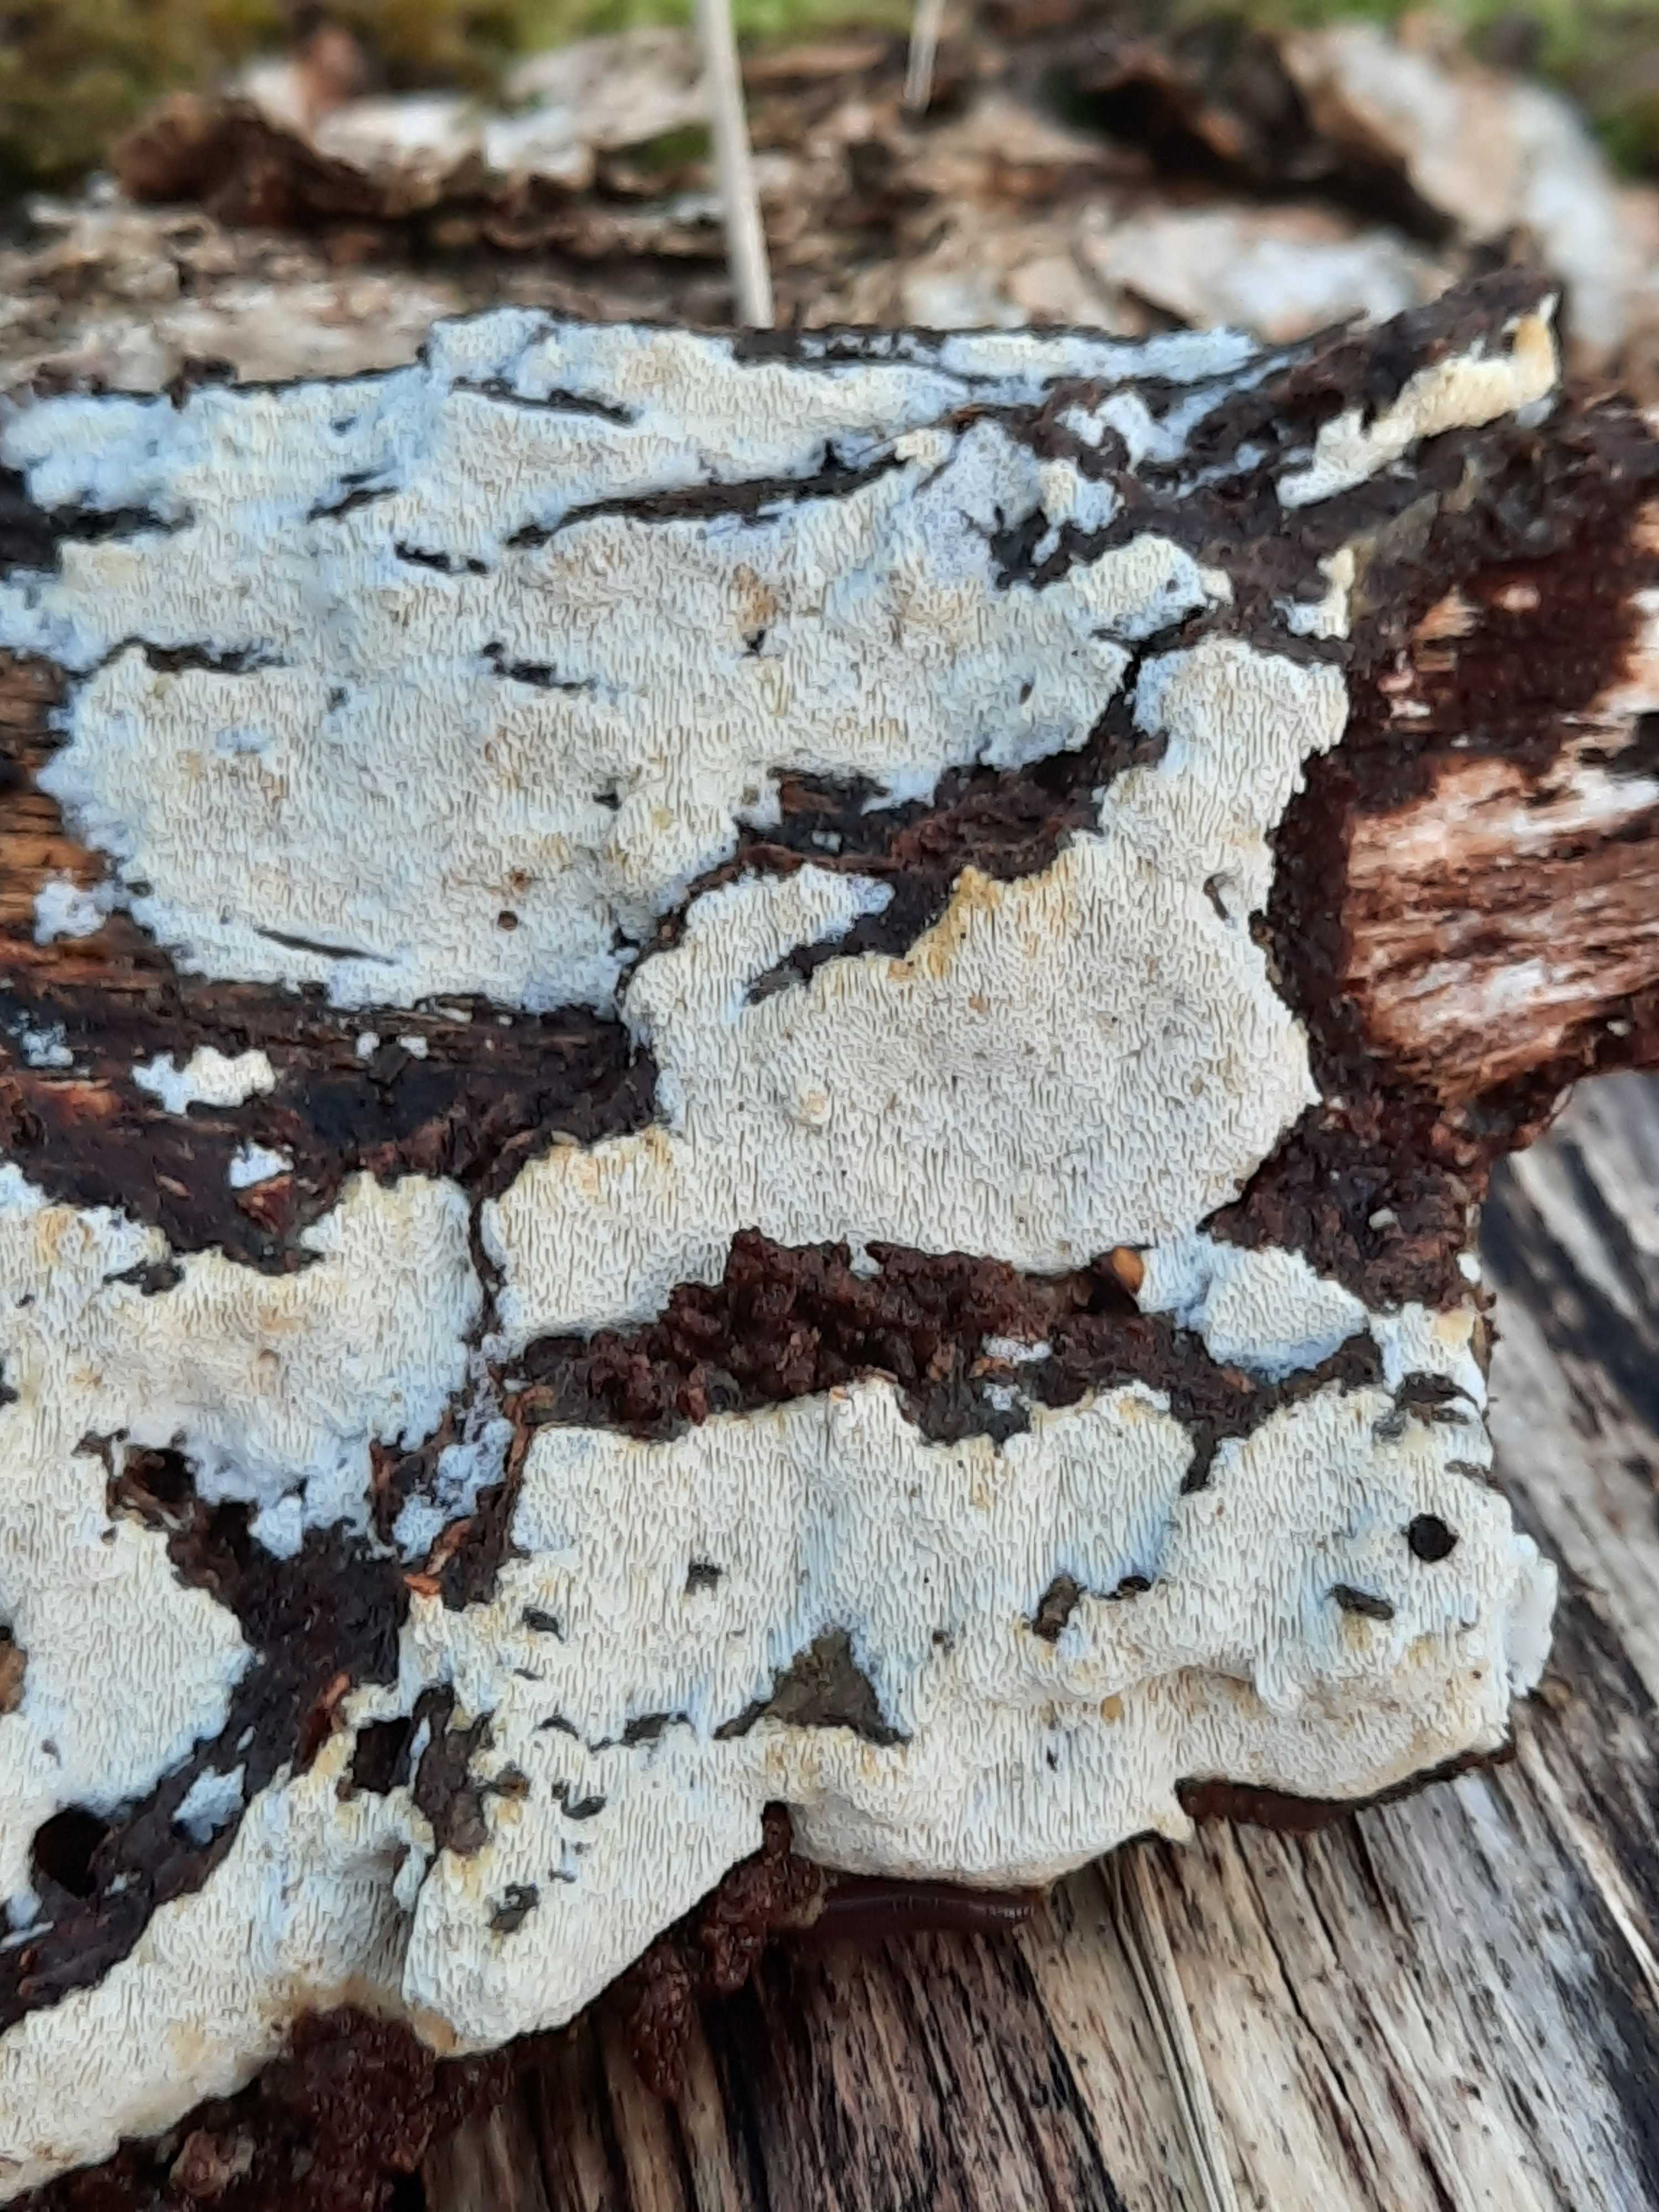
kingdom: Fungi
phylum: Basidiomycota
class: Agaricomycetes
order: Hymenochaetales
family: Schizoporaceae
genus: Xylodon
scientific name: Xylodon subtropicus
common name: labyrint-tandsvamp
